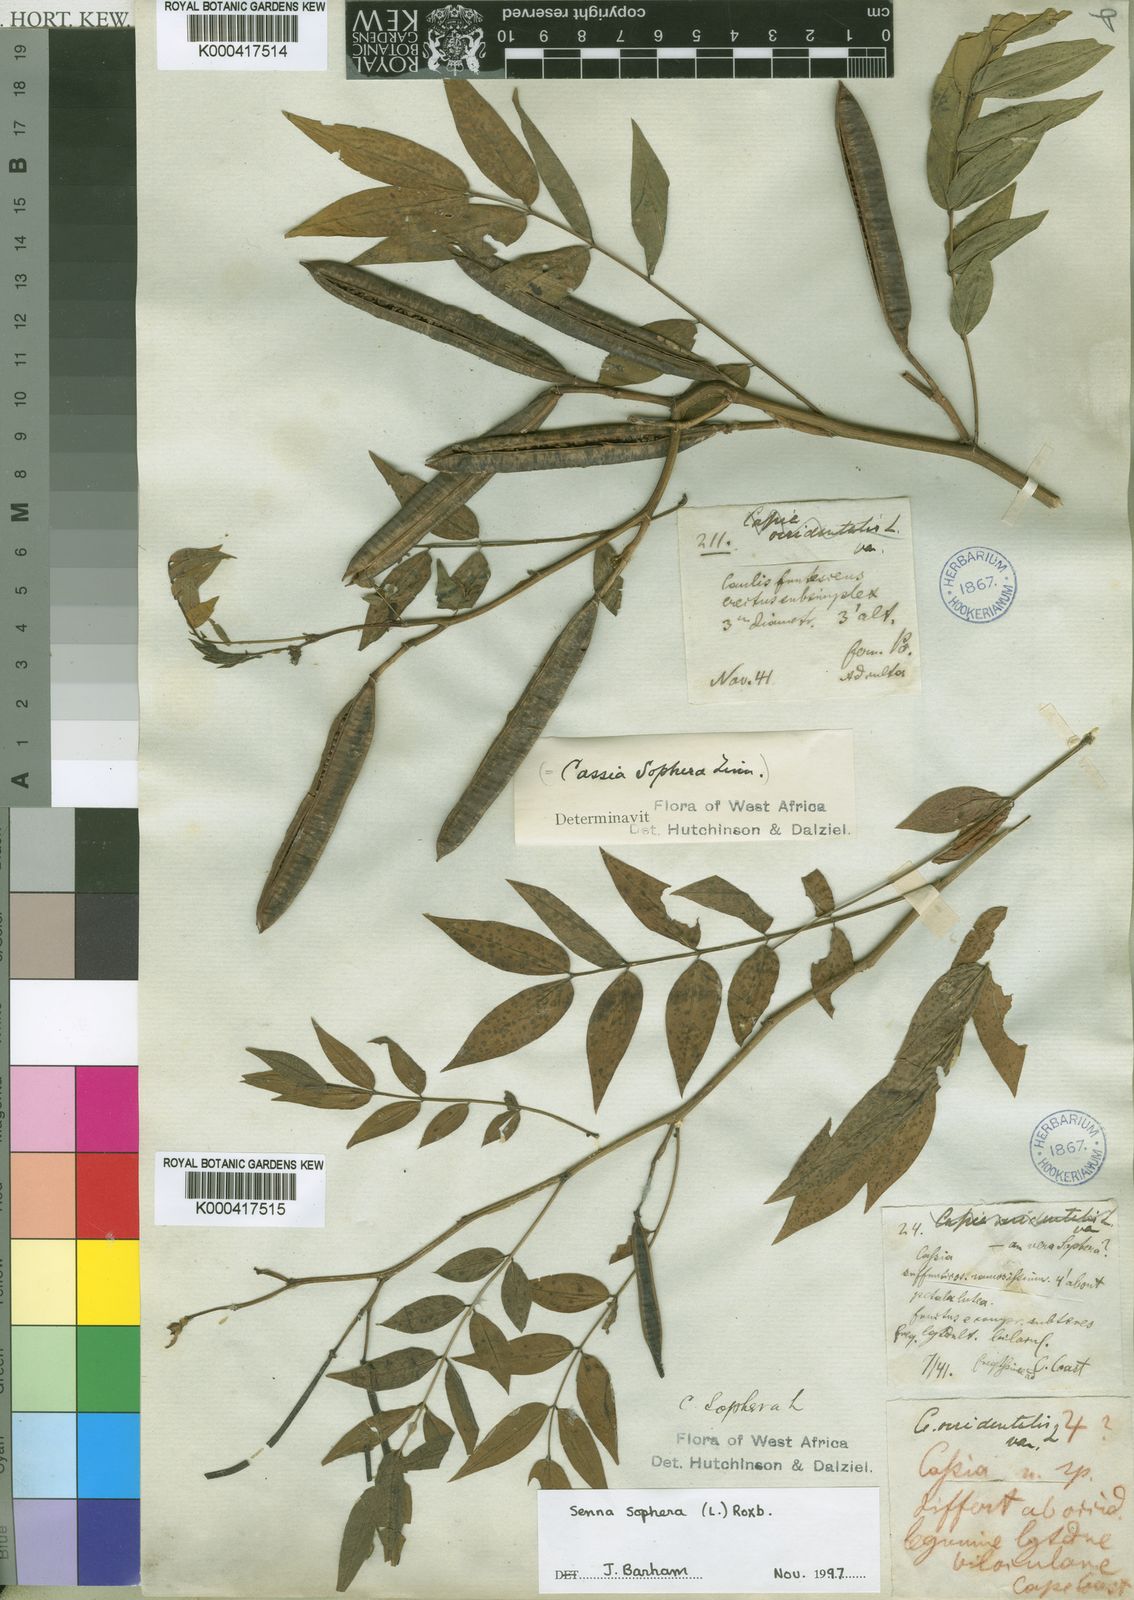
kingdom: Plantae
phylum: Tracheophyta
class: Magnoliopsida
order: Fabales
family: Fabaceae
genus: Senna
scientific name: Senna sophera
